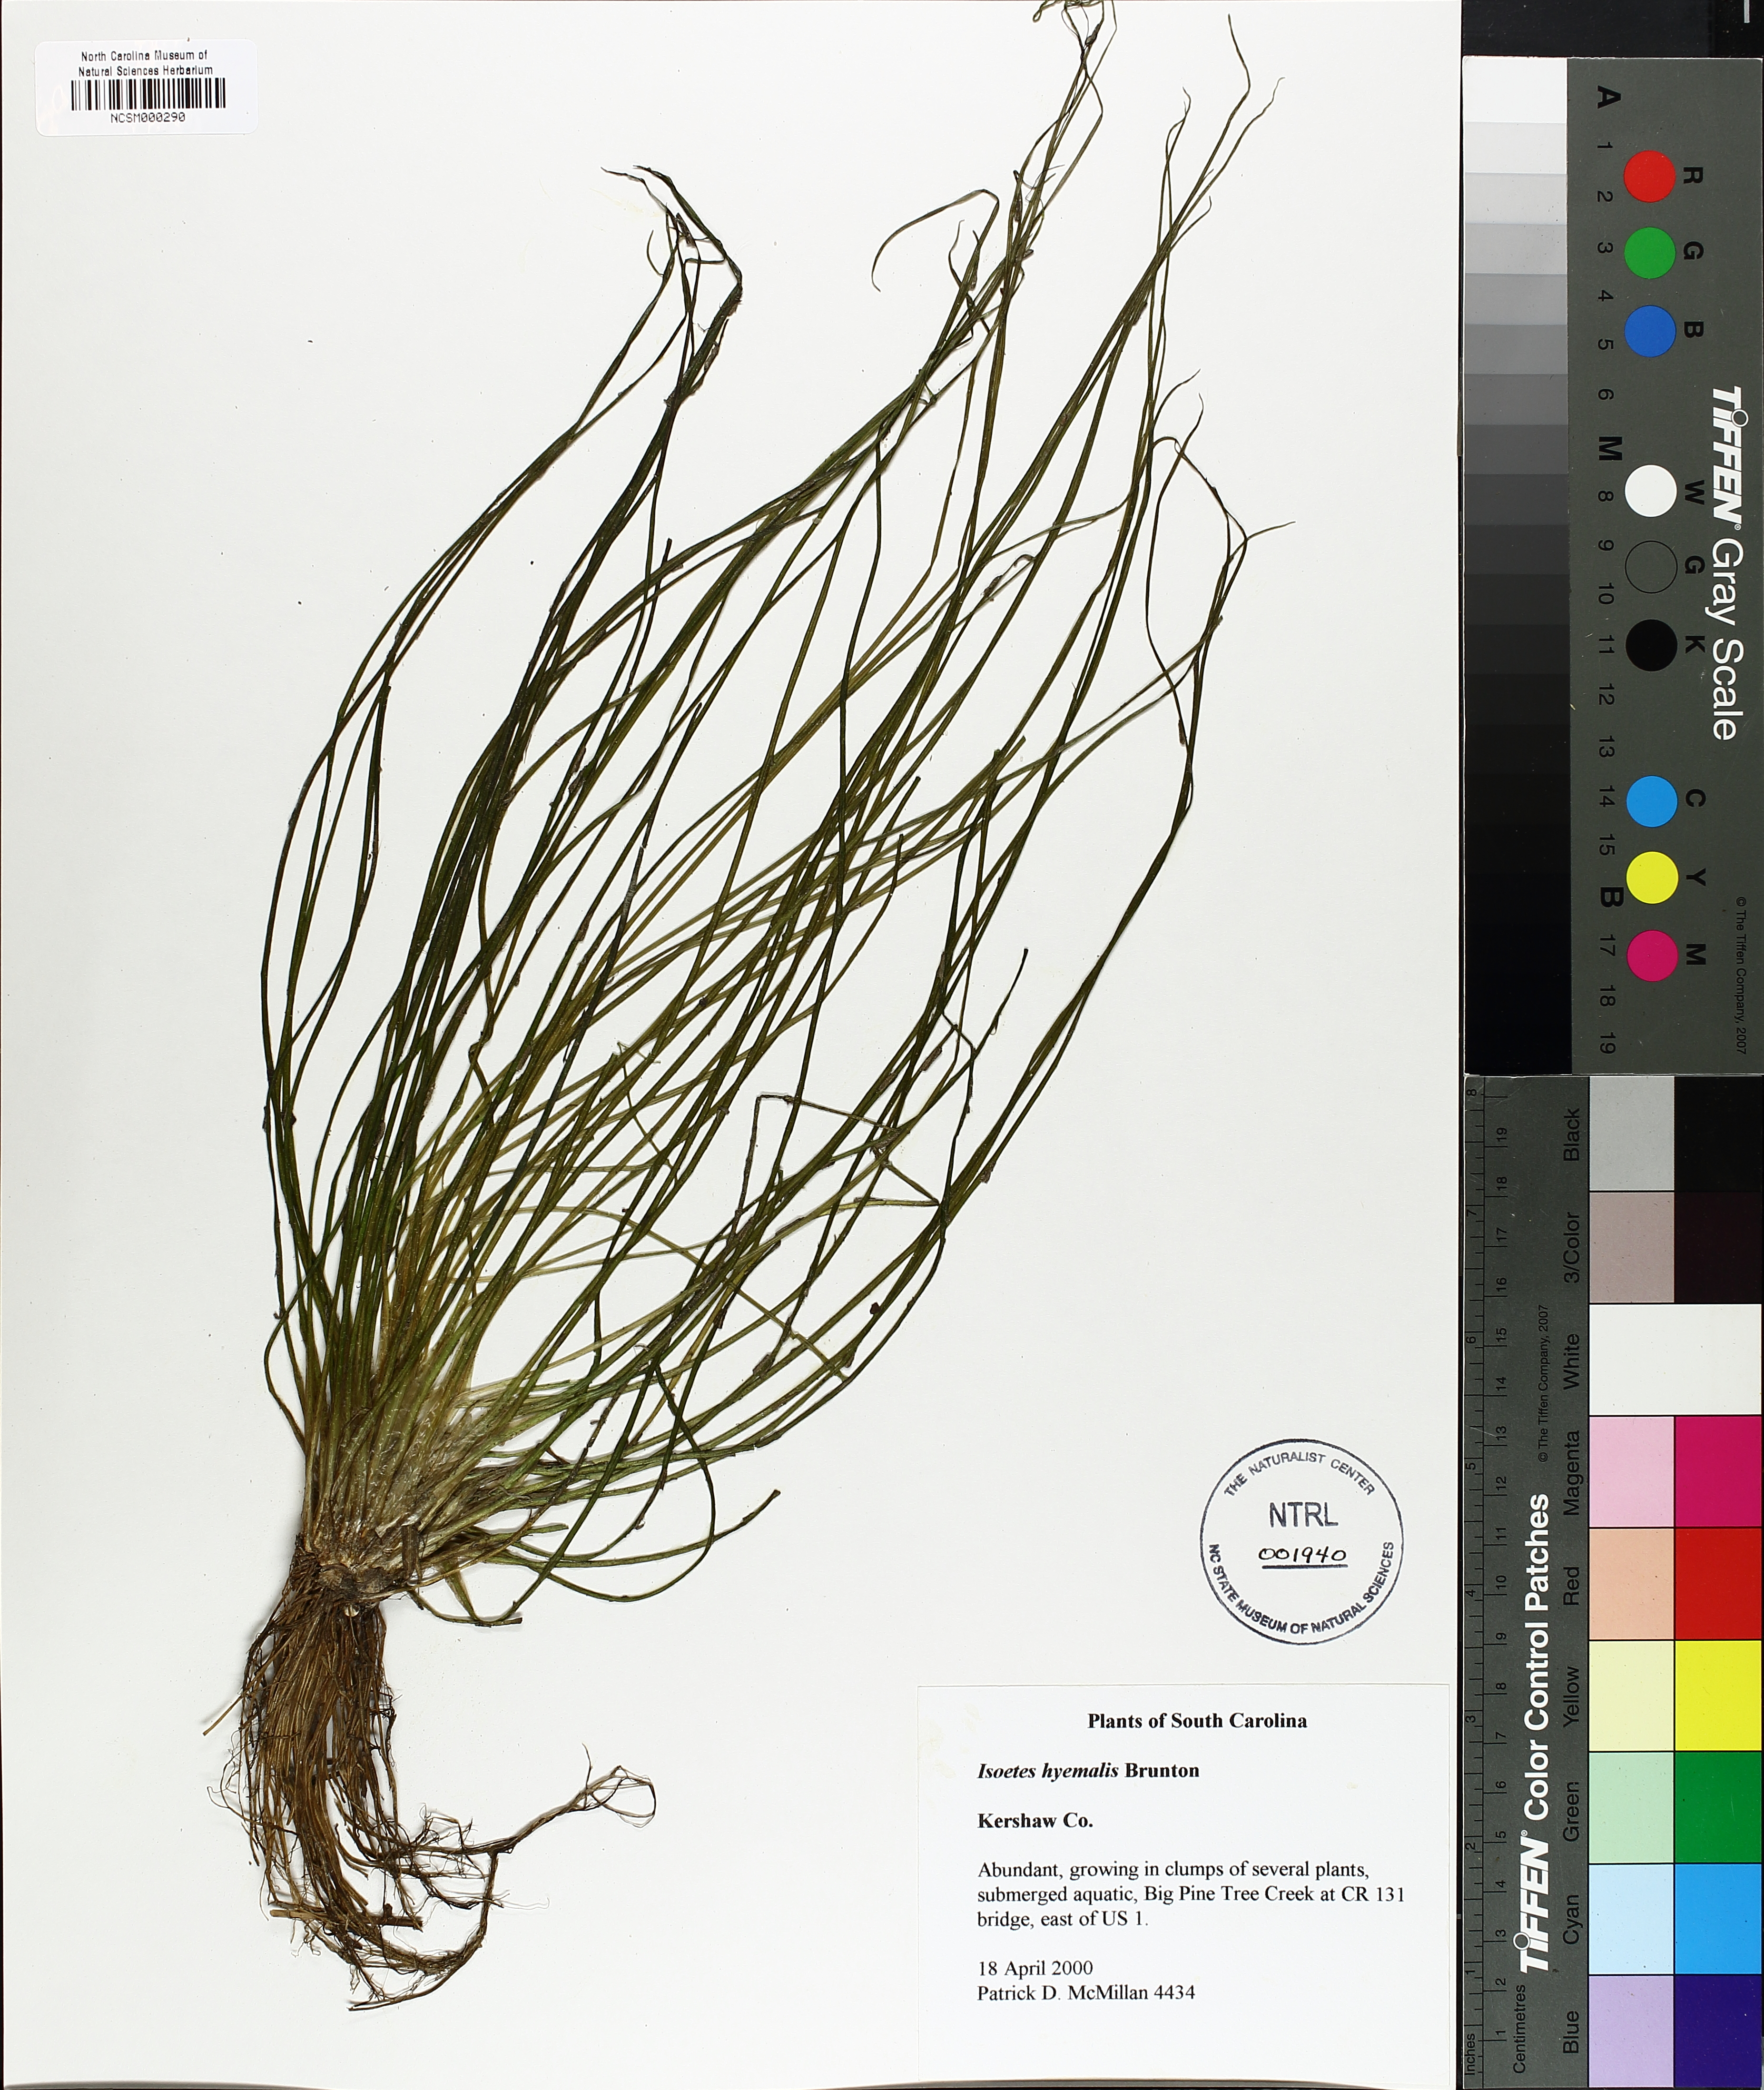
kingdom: Plantae
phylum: Tracheophyta
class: Lycopodiopsida
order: Isoetales
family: Isoetaceae
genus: Isoetes
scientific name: Isoetes hyemalis
